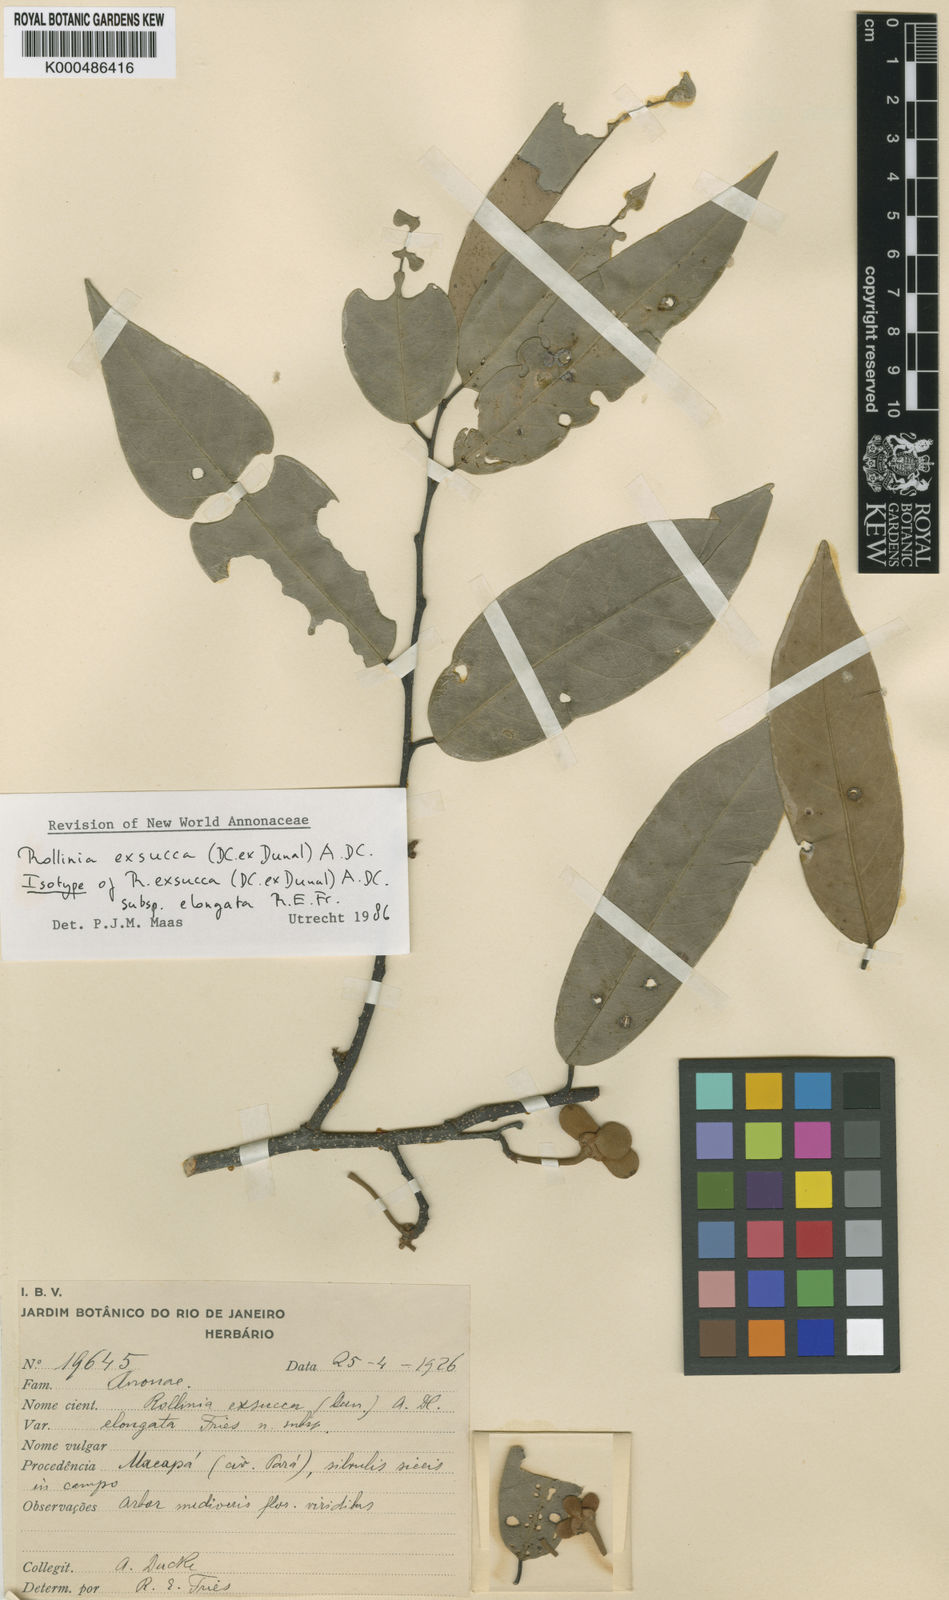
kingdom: Plantae
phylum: Tracheophyta
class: Magnoliopsida
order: Magnoliales
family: Annonaceae
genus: Annona
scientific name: Annona
